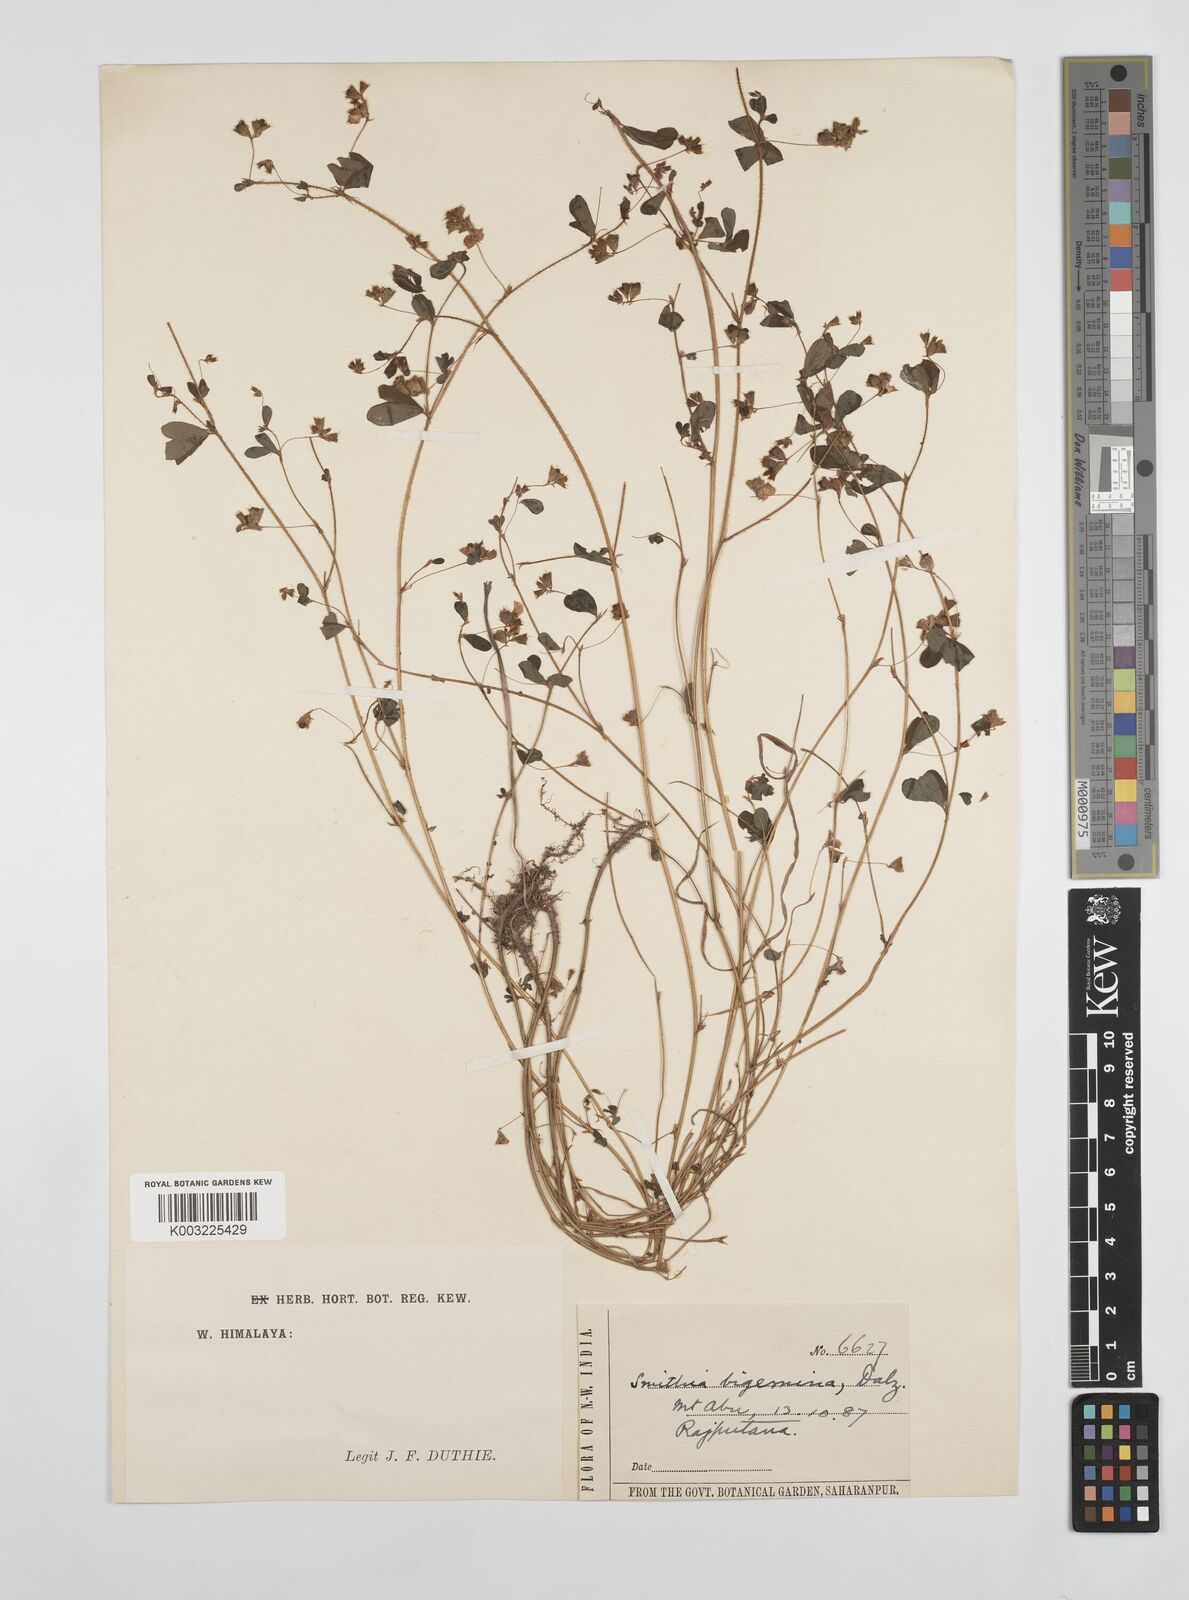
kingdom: Plantae
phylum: Tracheophyta
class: Magnoliopsida
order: Fabales
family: Fabaceae
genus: Smithia
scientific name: Smithia bigemina
